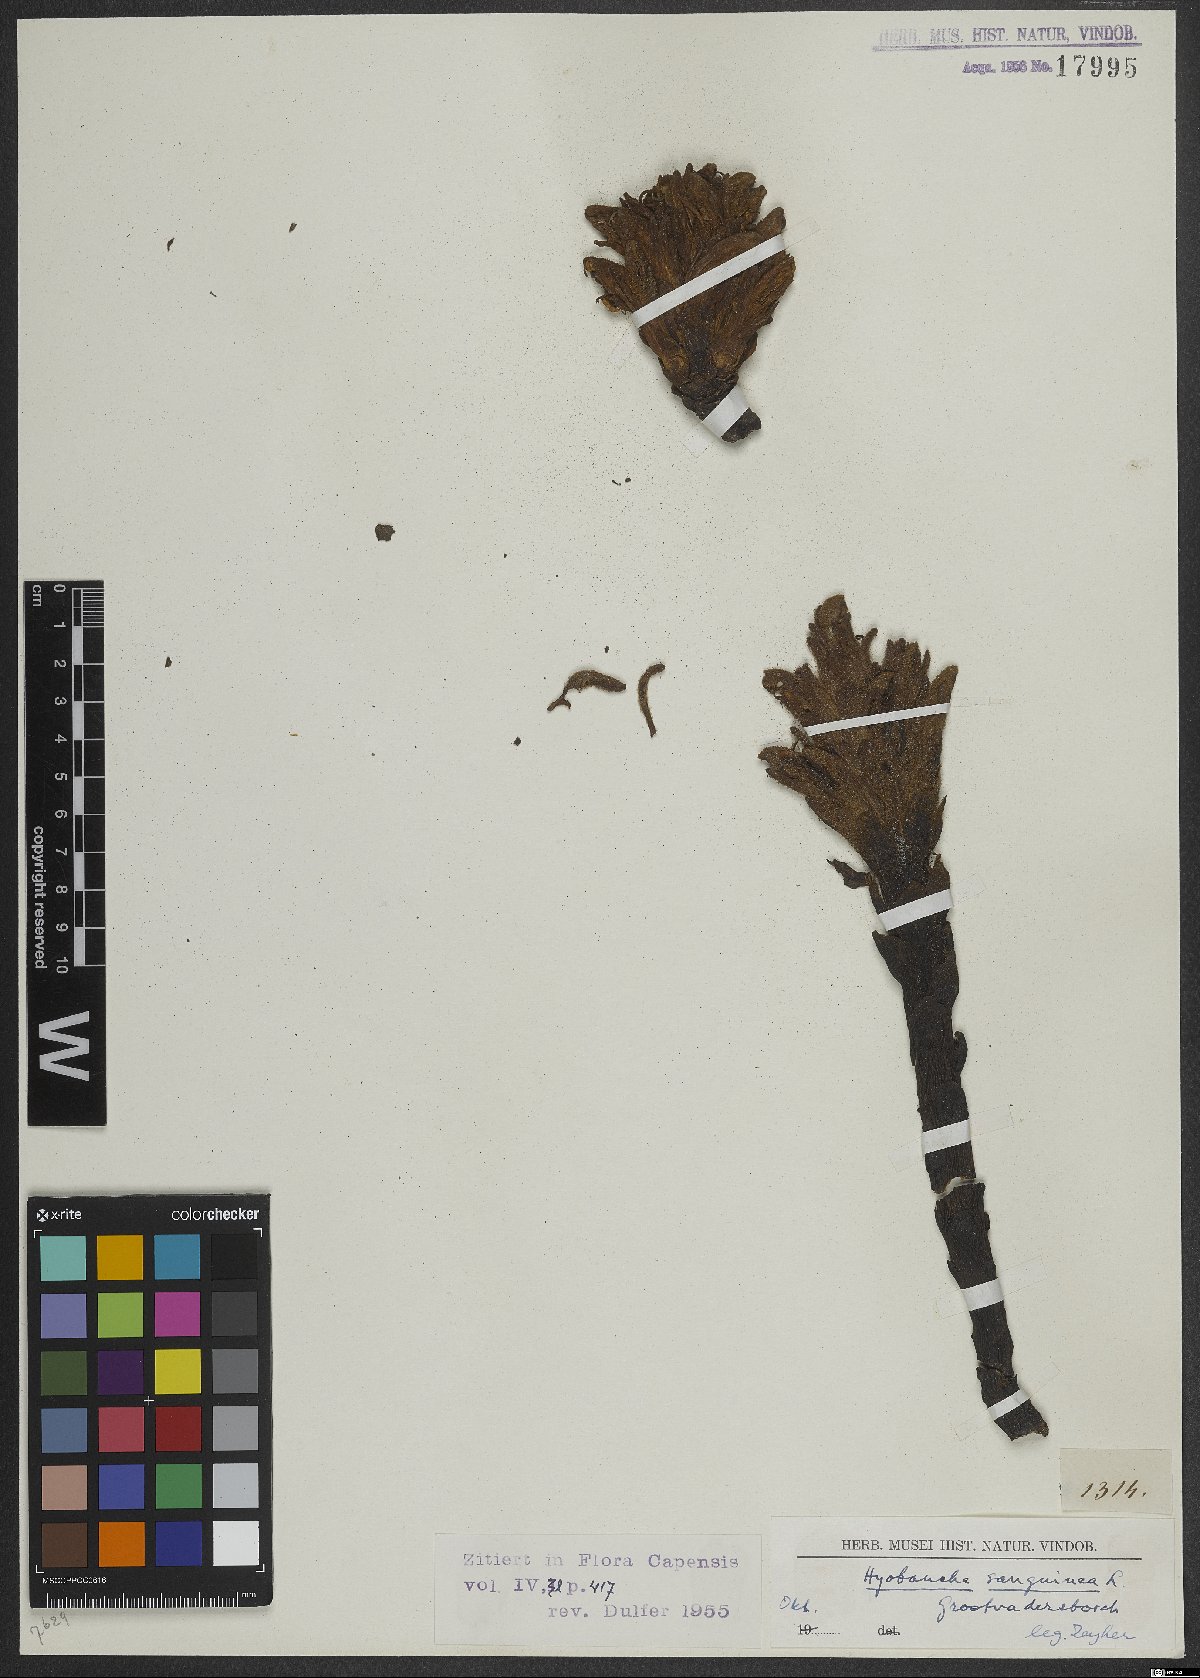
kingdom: Plantae
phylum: Tracheophyta
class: Magnoliopsida
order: Lamiales
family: Orobanchaceae
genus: Hyobanche
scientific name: Hyobanche sanguinea
